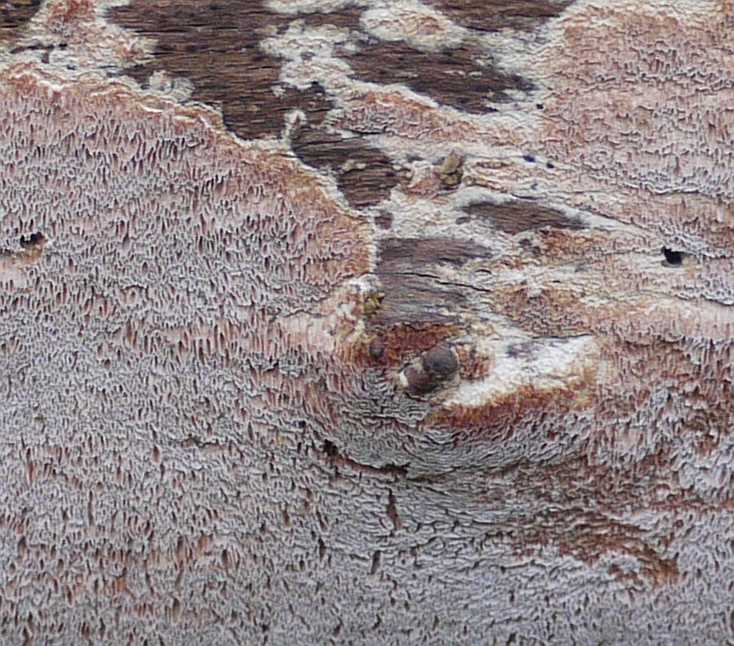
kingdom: Fungi
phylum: Basidiomycota
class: Agaricomycetes
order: Polyporales
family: Meruliaceae
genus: Mycoacia
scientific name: Mycoacia gilvescens
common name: rosa pastelporesvamp
